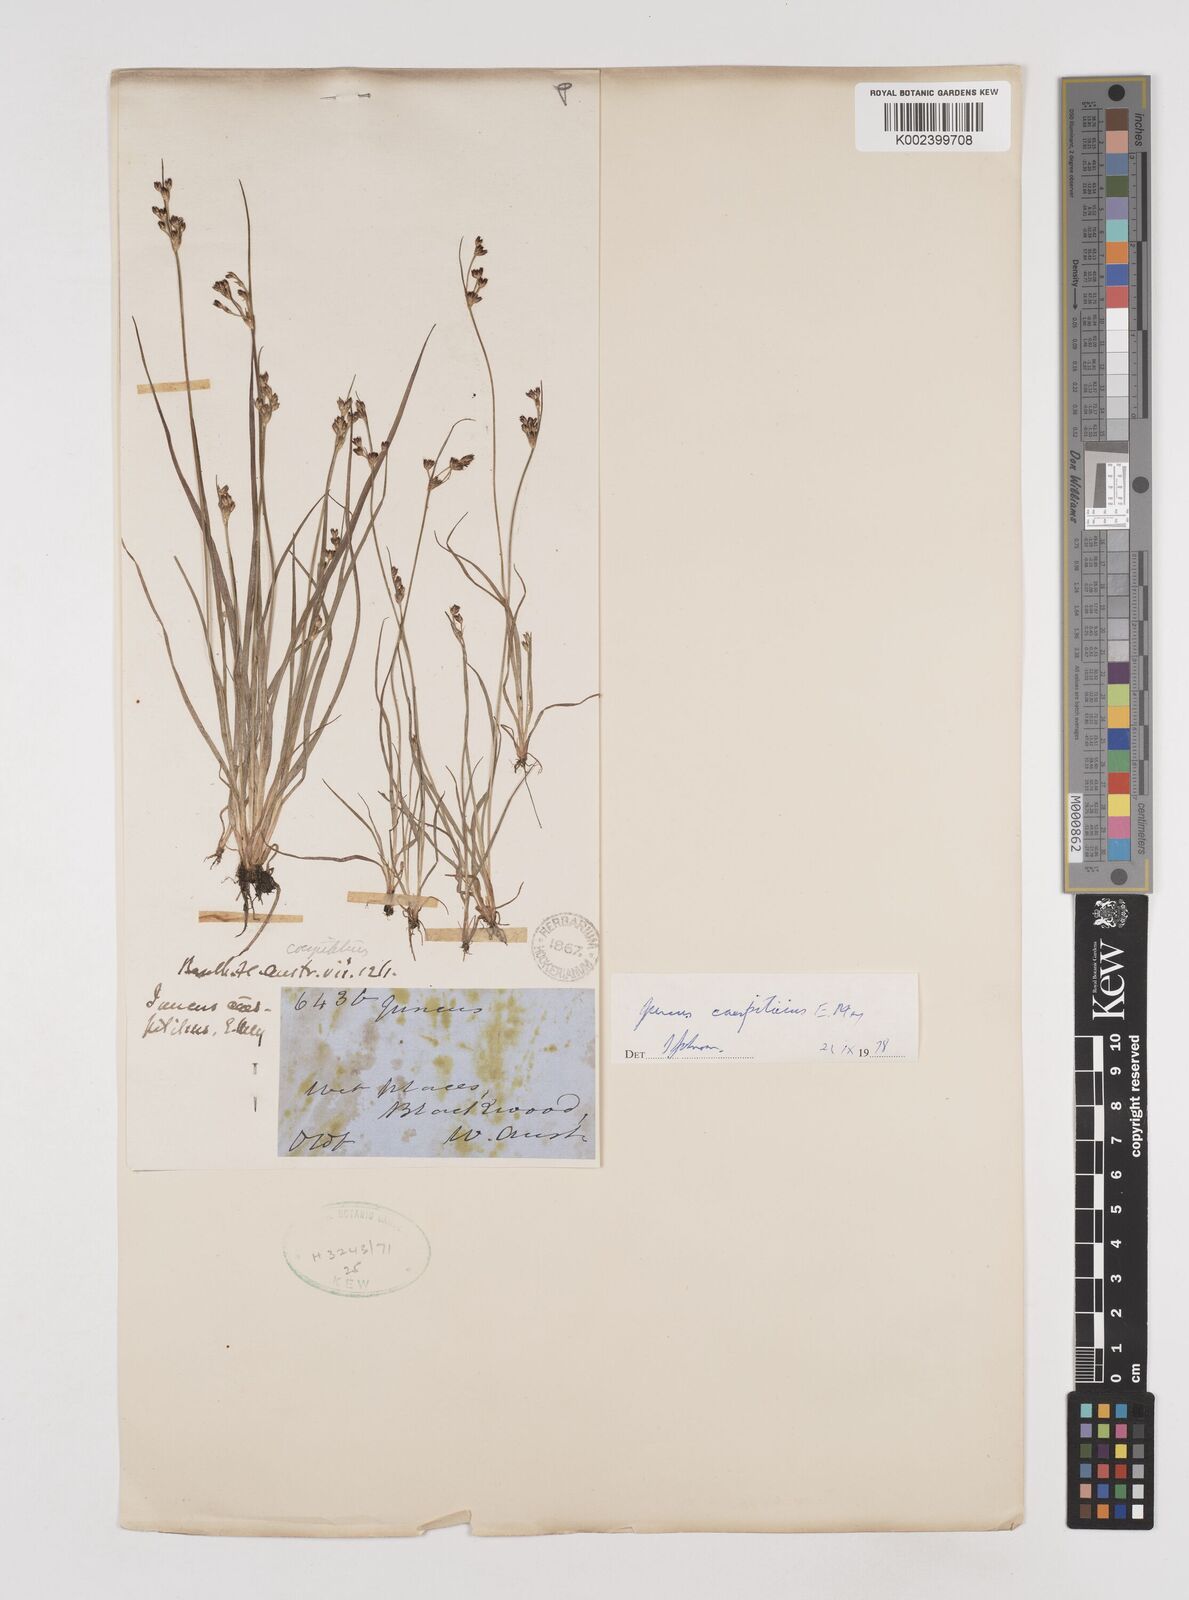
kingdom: Plantae
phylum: Tracheophyta
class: Liliopsida
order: Poales
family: Juncaceae
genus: Juncus
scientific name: Juncus caespiticius
